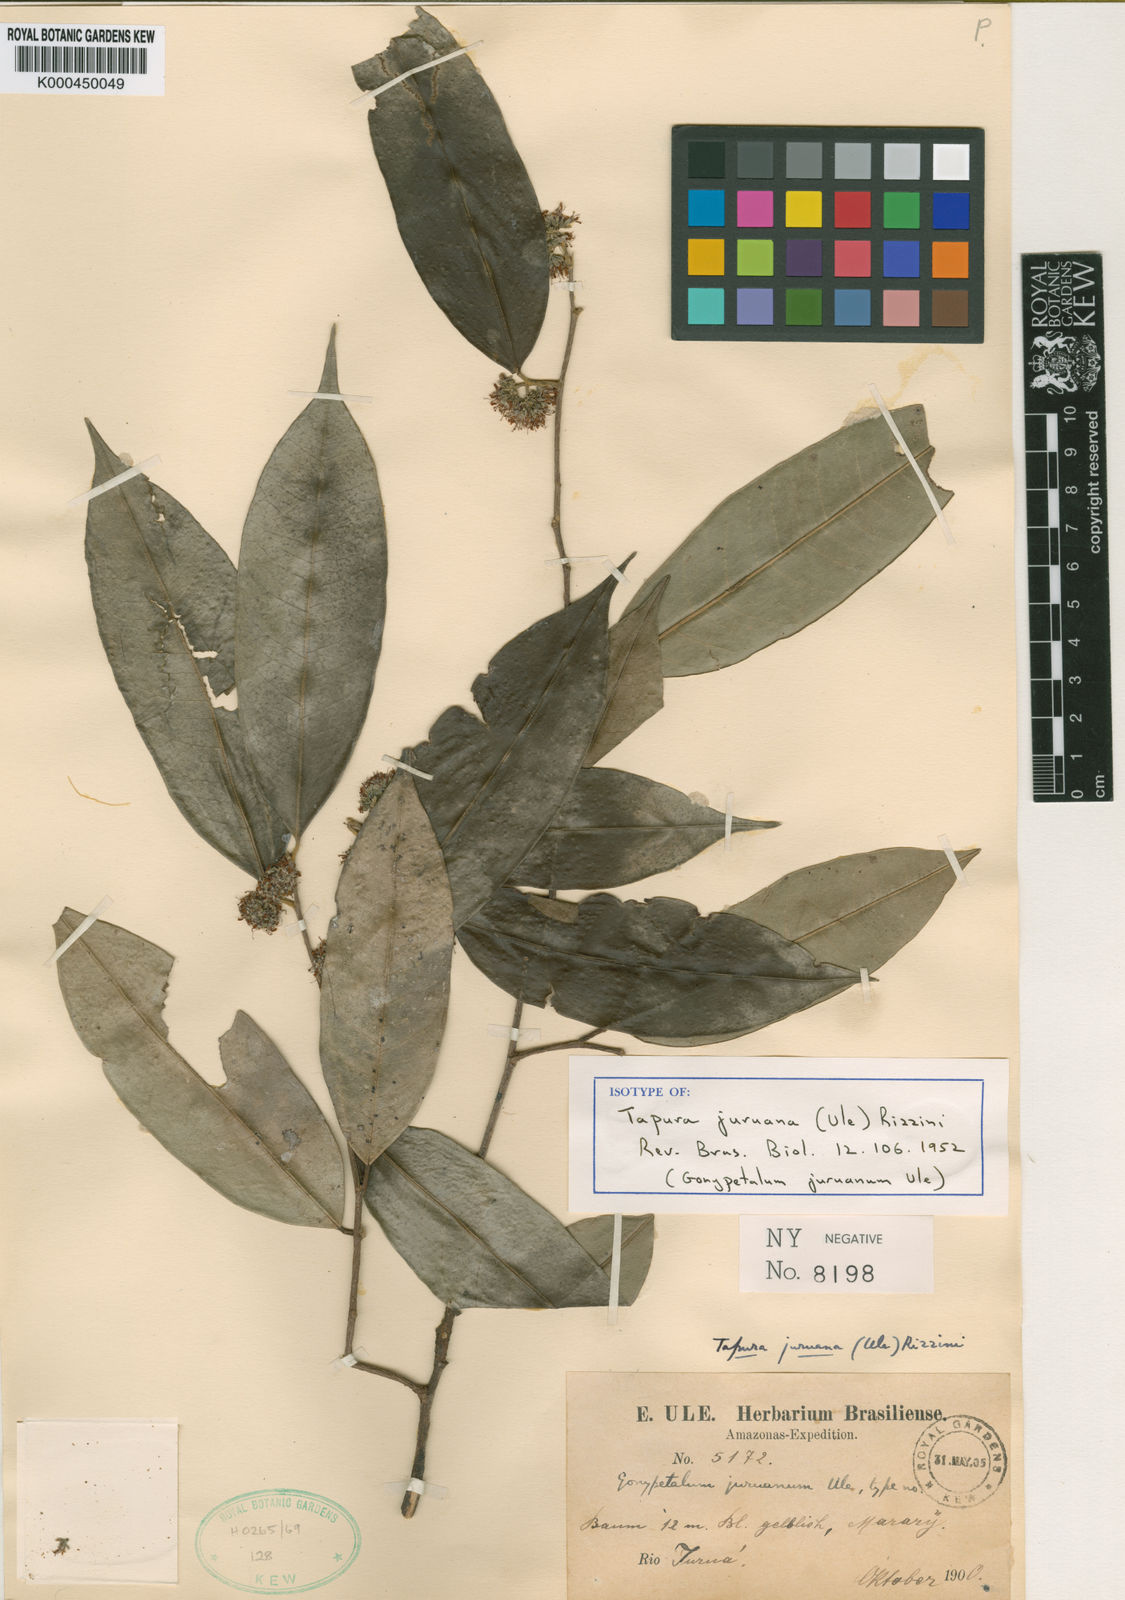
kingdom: Plantae
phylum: Tracheophyta
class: Magnoliopsida
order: Malpighiales
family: Dichapetalaceae
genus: Tapura
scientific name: Tapura juruana
